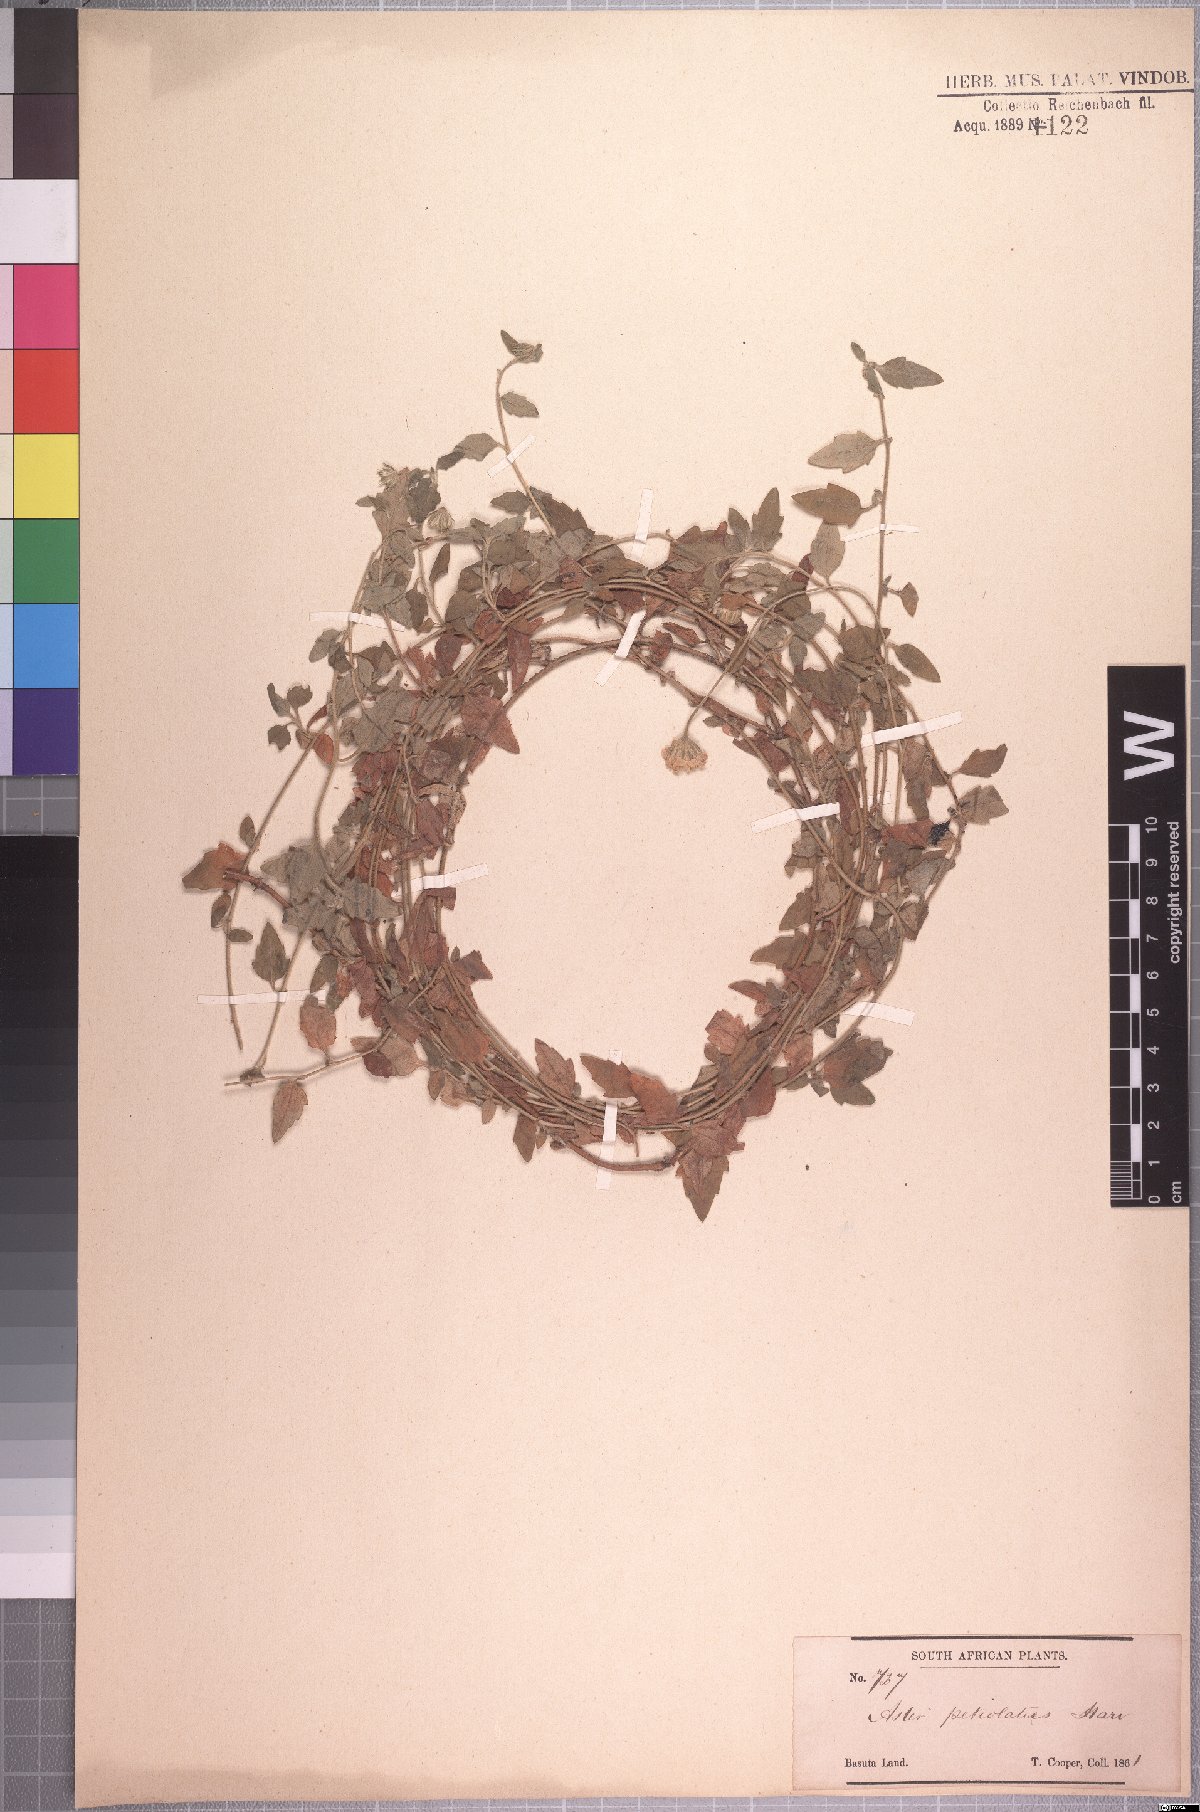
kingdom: Plantae
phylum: Tracheophyta
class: Magnoliopsida
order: Asterales
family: Asteraceae
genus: Felicia
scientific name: Felicia petiolata
